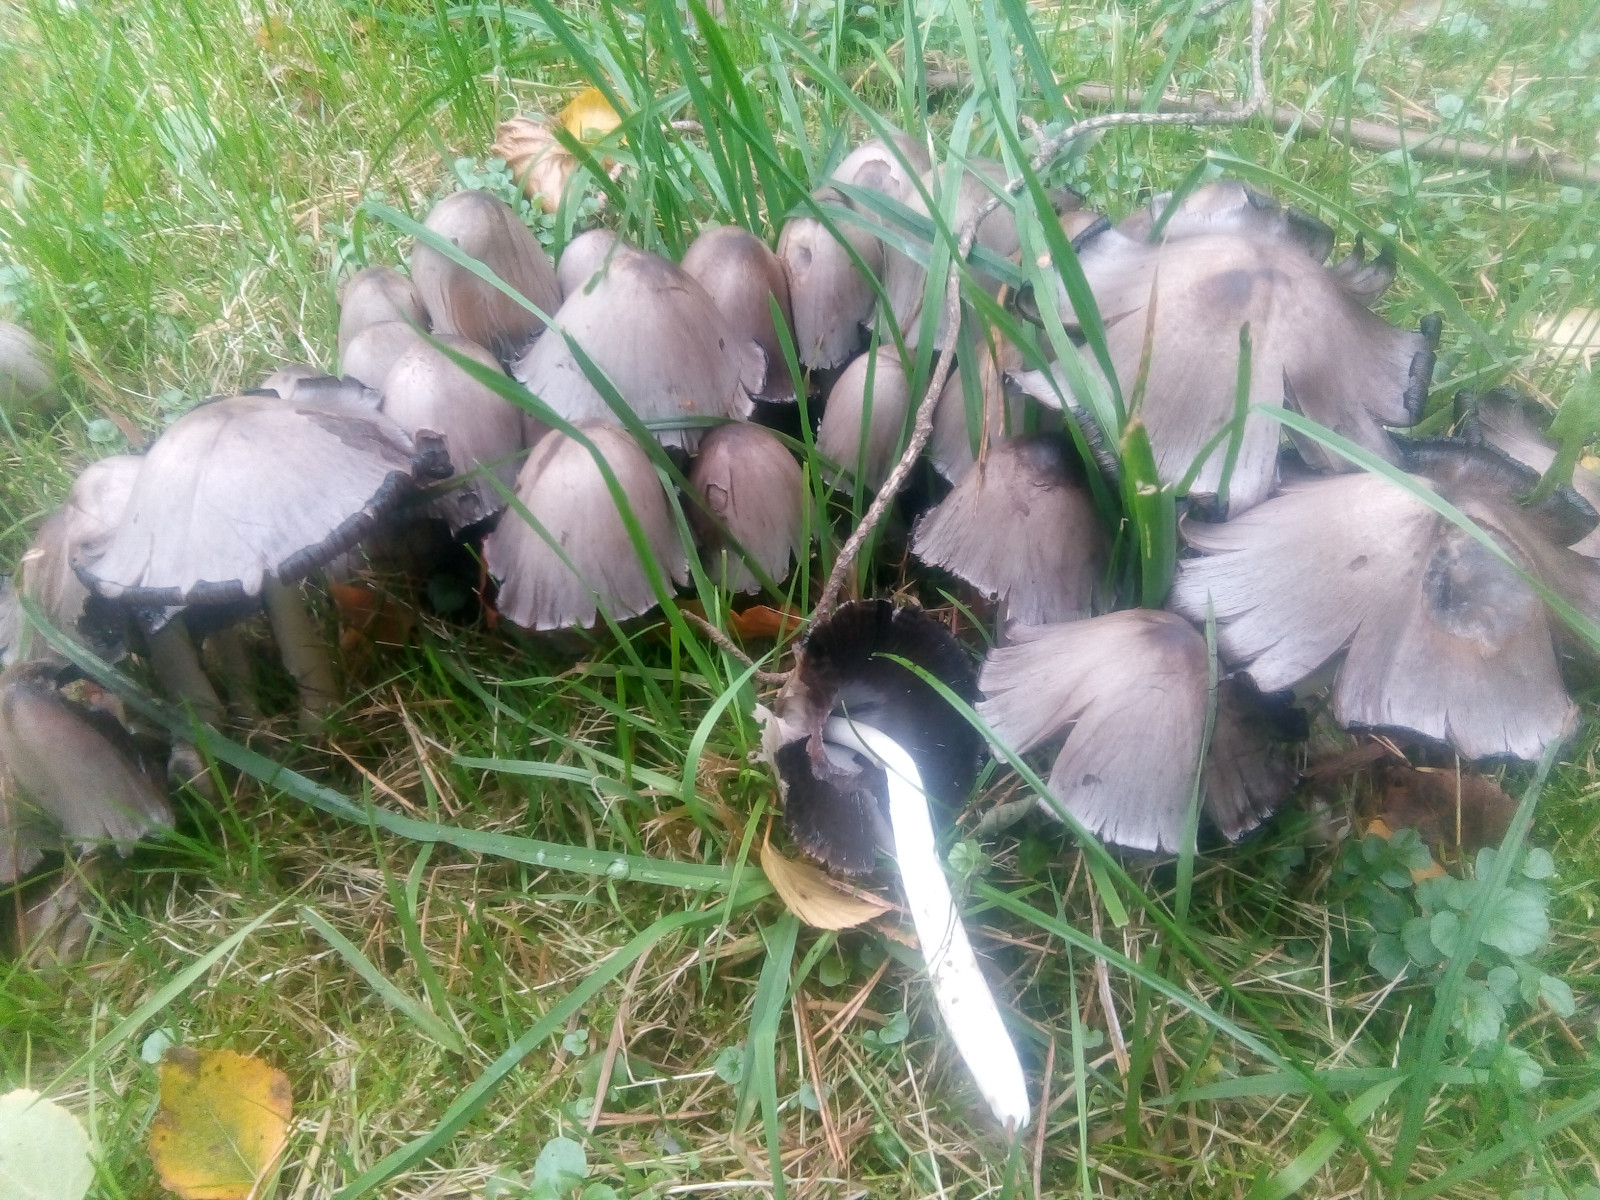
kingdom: Fungi
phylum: Basidiomycota
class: Agaricomycetes
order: Agaricales
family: Psathyrellaceae
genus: Coprinopsis
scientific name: Coprinopsis atramentaria
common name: almindelig blækhat
